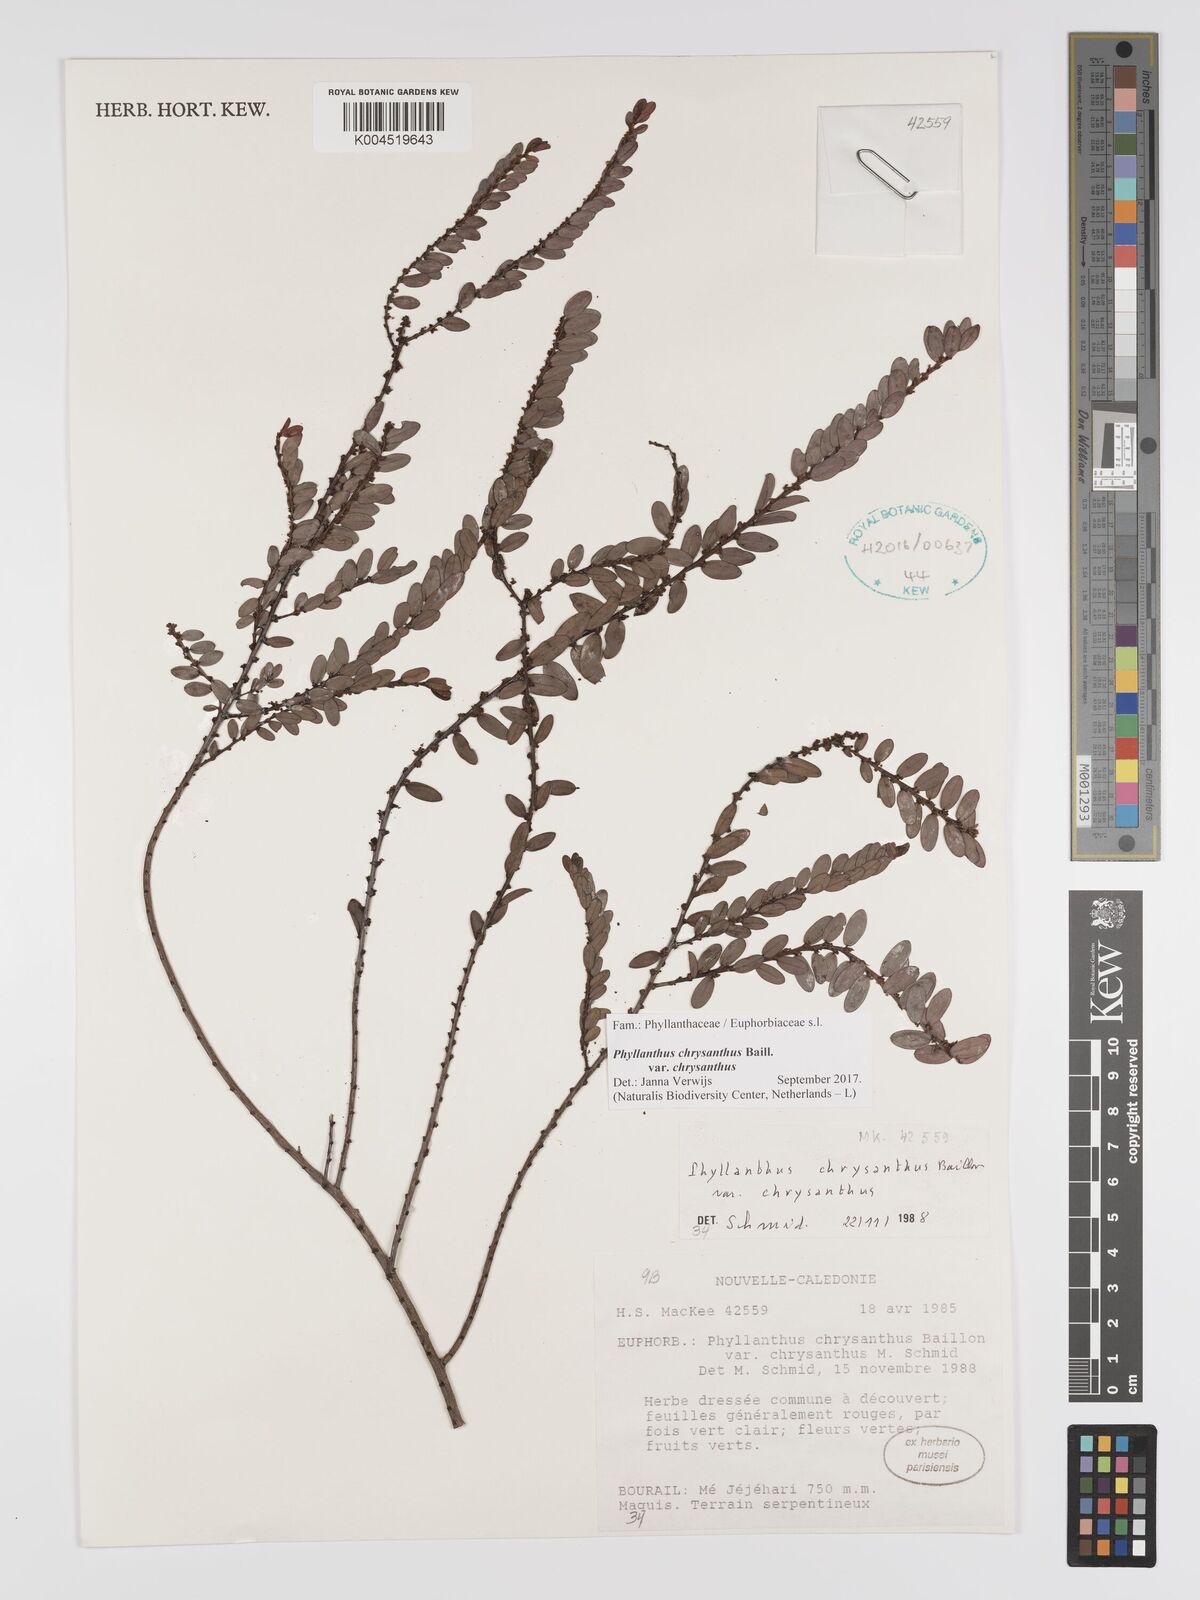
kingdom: Plantae
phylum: Tracheophyta
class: Magnoliopsida
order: Malpighiales
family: Phyllanthaceae
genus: Phyllanthus
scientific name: Phyllanthus chrysanthus
